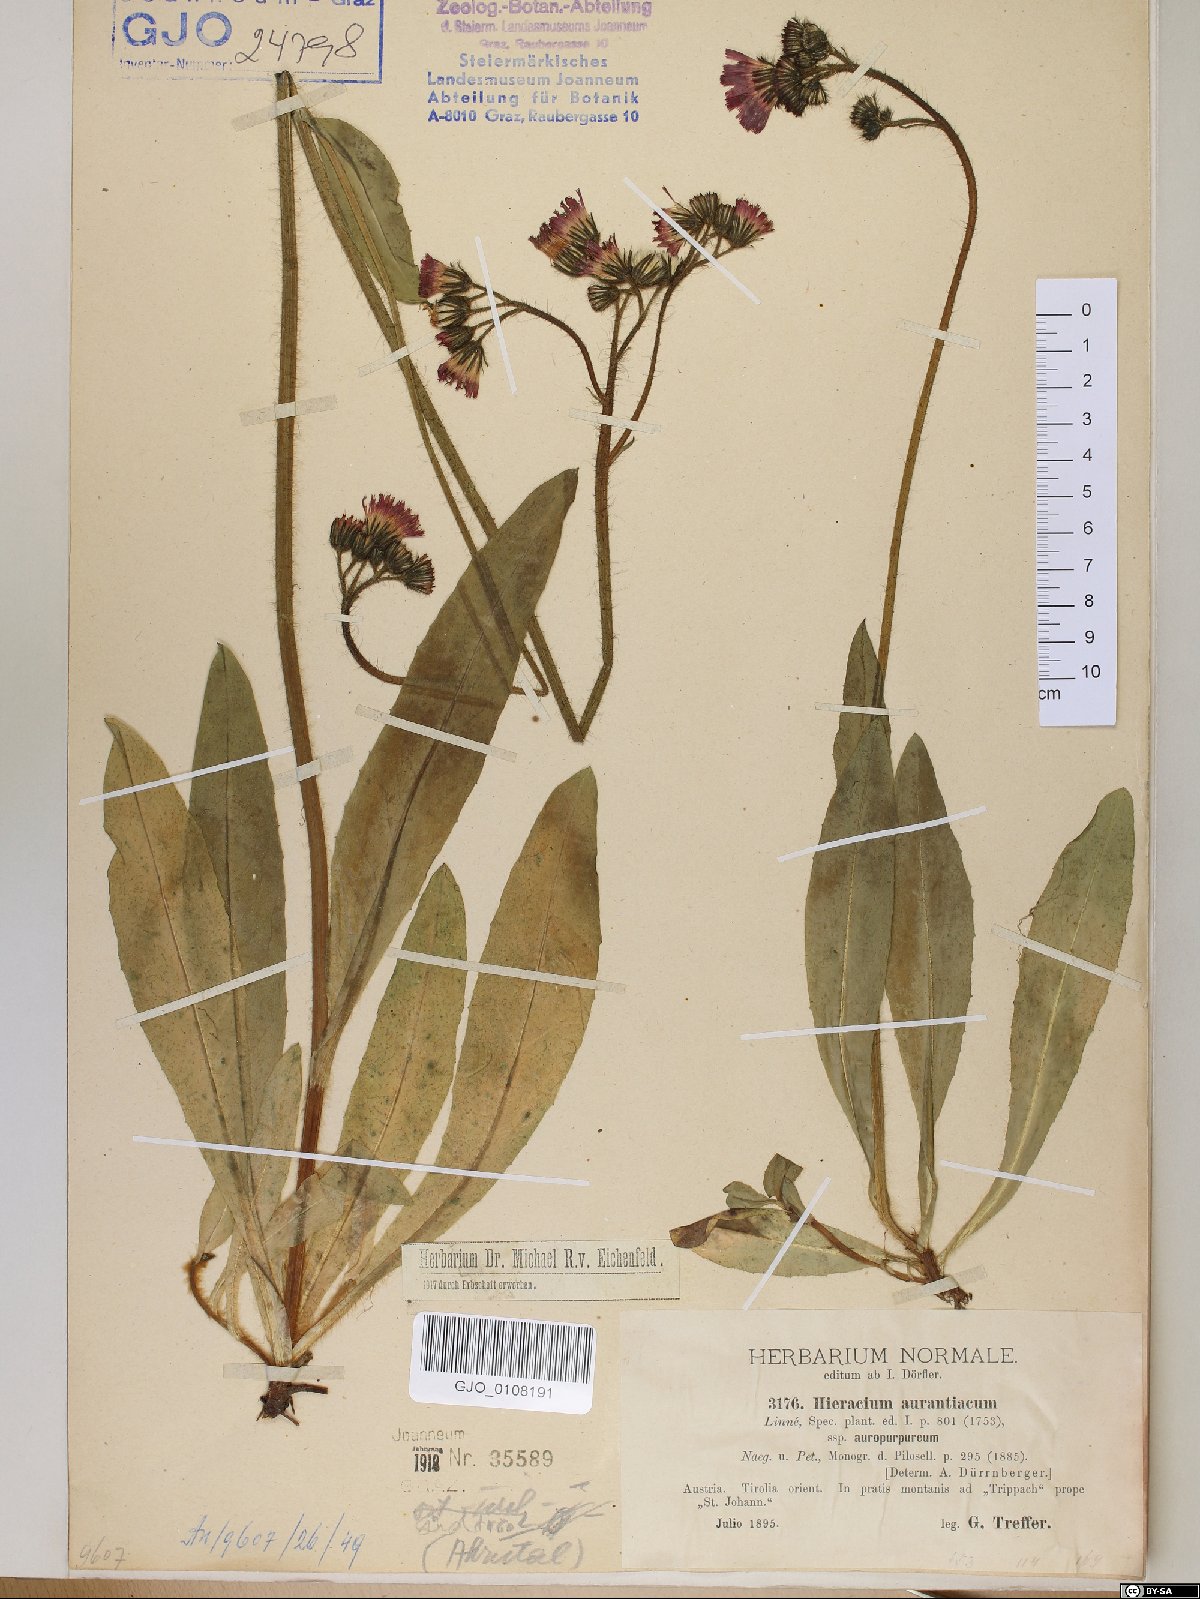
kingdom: Plantae
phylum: Tracheophyta
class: Magnoliopsida
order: Asterales
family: Asteraceae
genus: Pilosella
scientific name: Pilosella aurantiaca
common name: Fox-and-cubs
